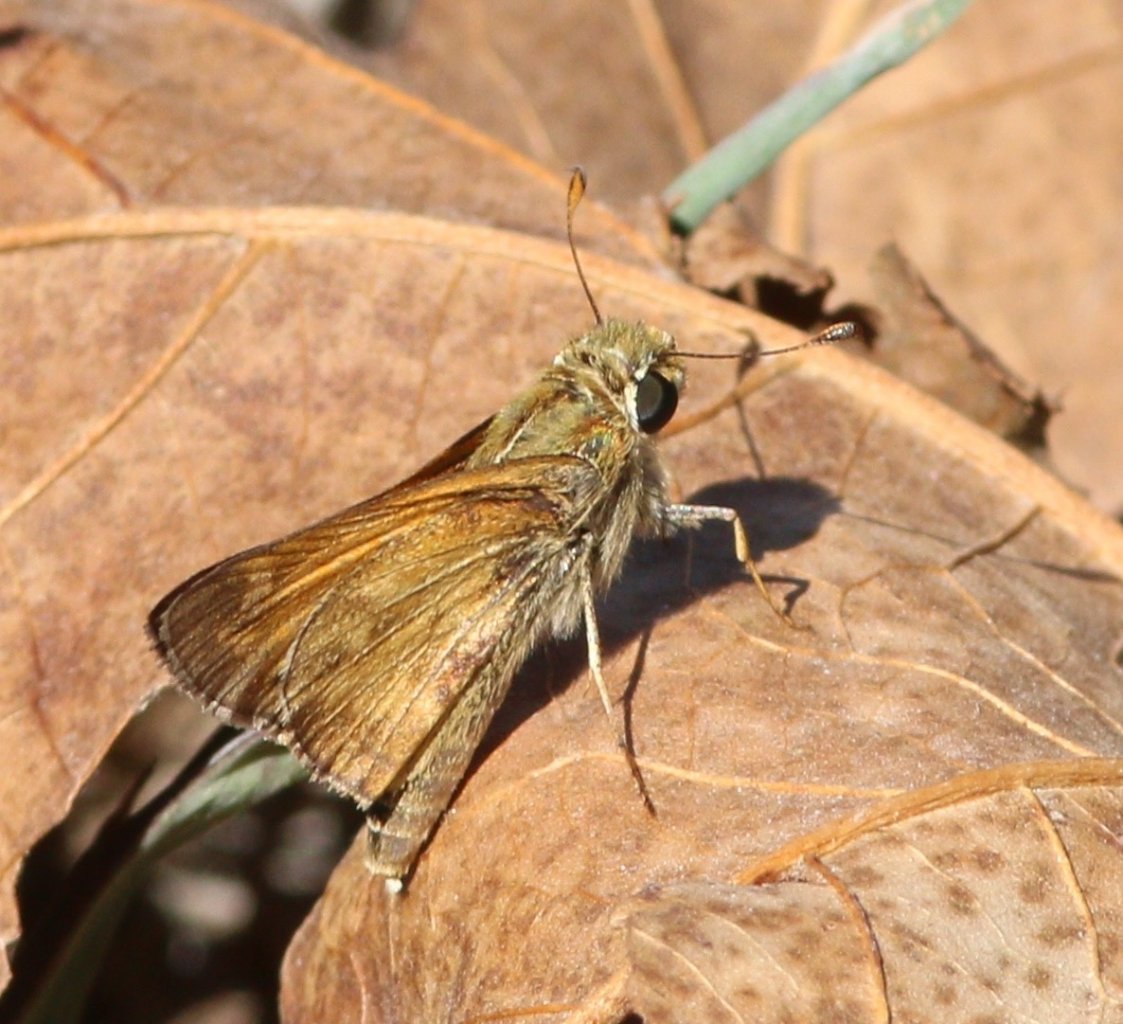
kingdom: Animalia
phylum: Arthropoda
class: Insecta
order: Lepidoptera
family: Hesperiidae
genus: Atalopedes
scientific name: Atalopedes campestris
